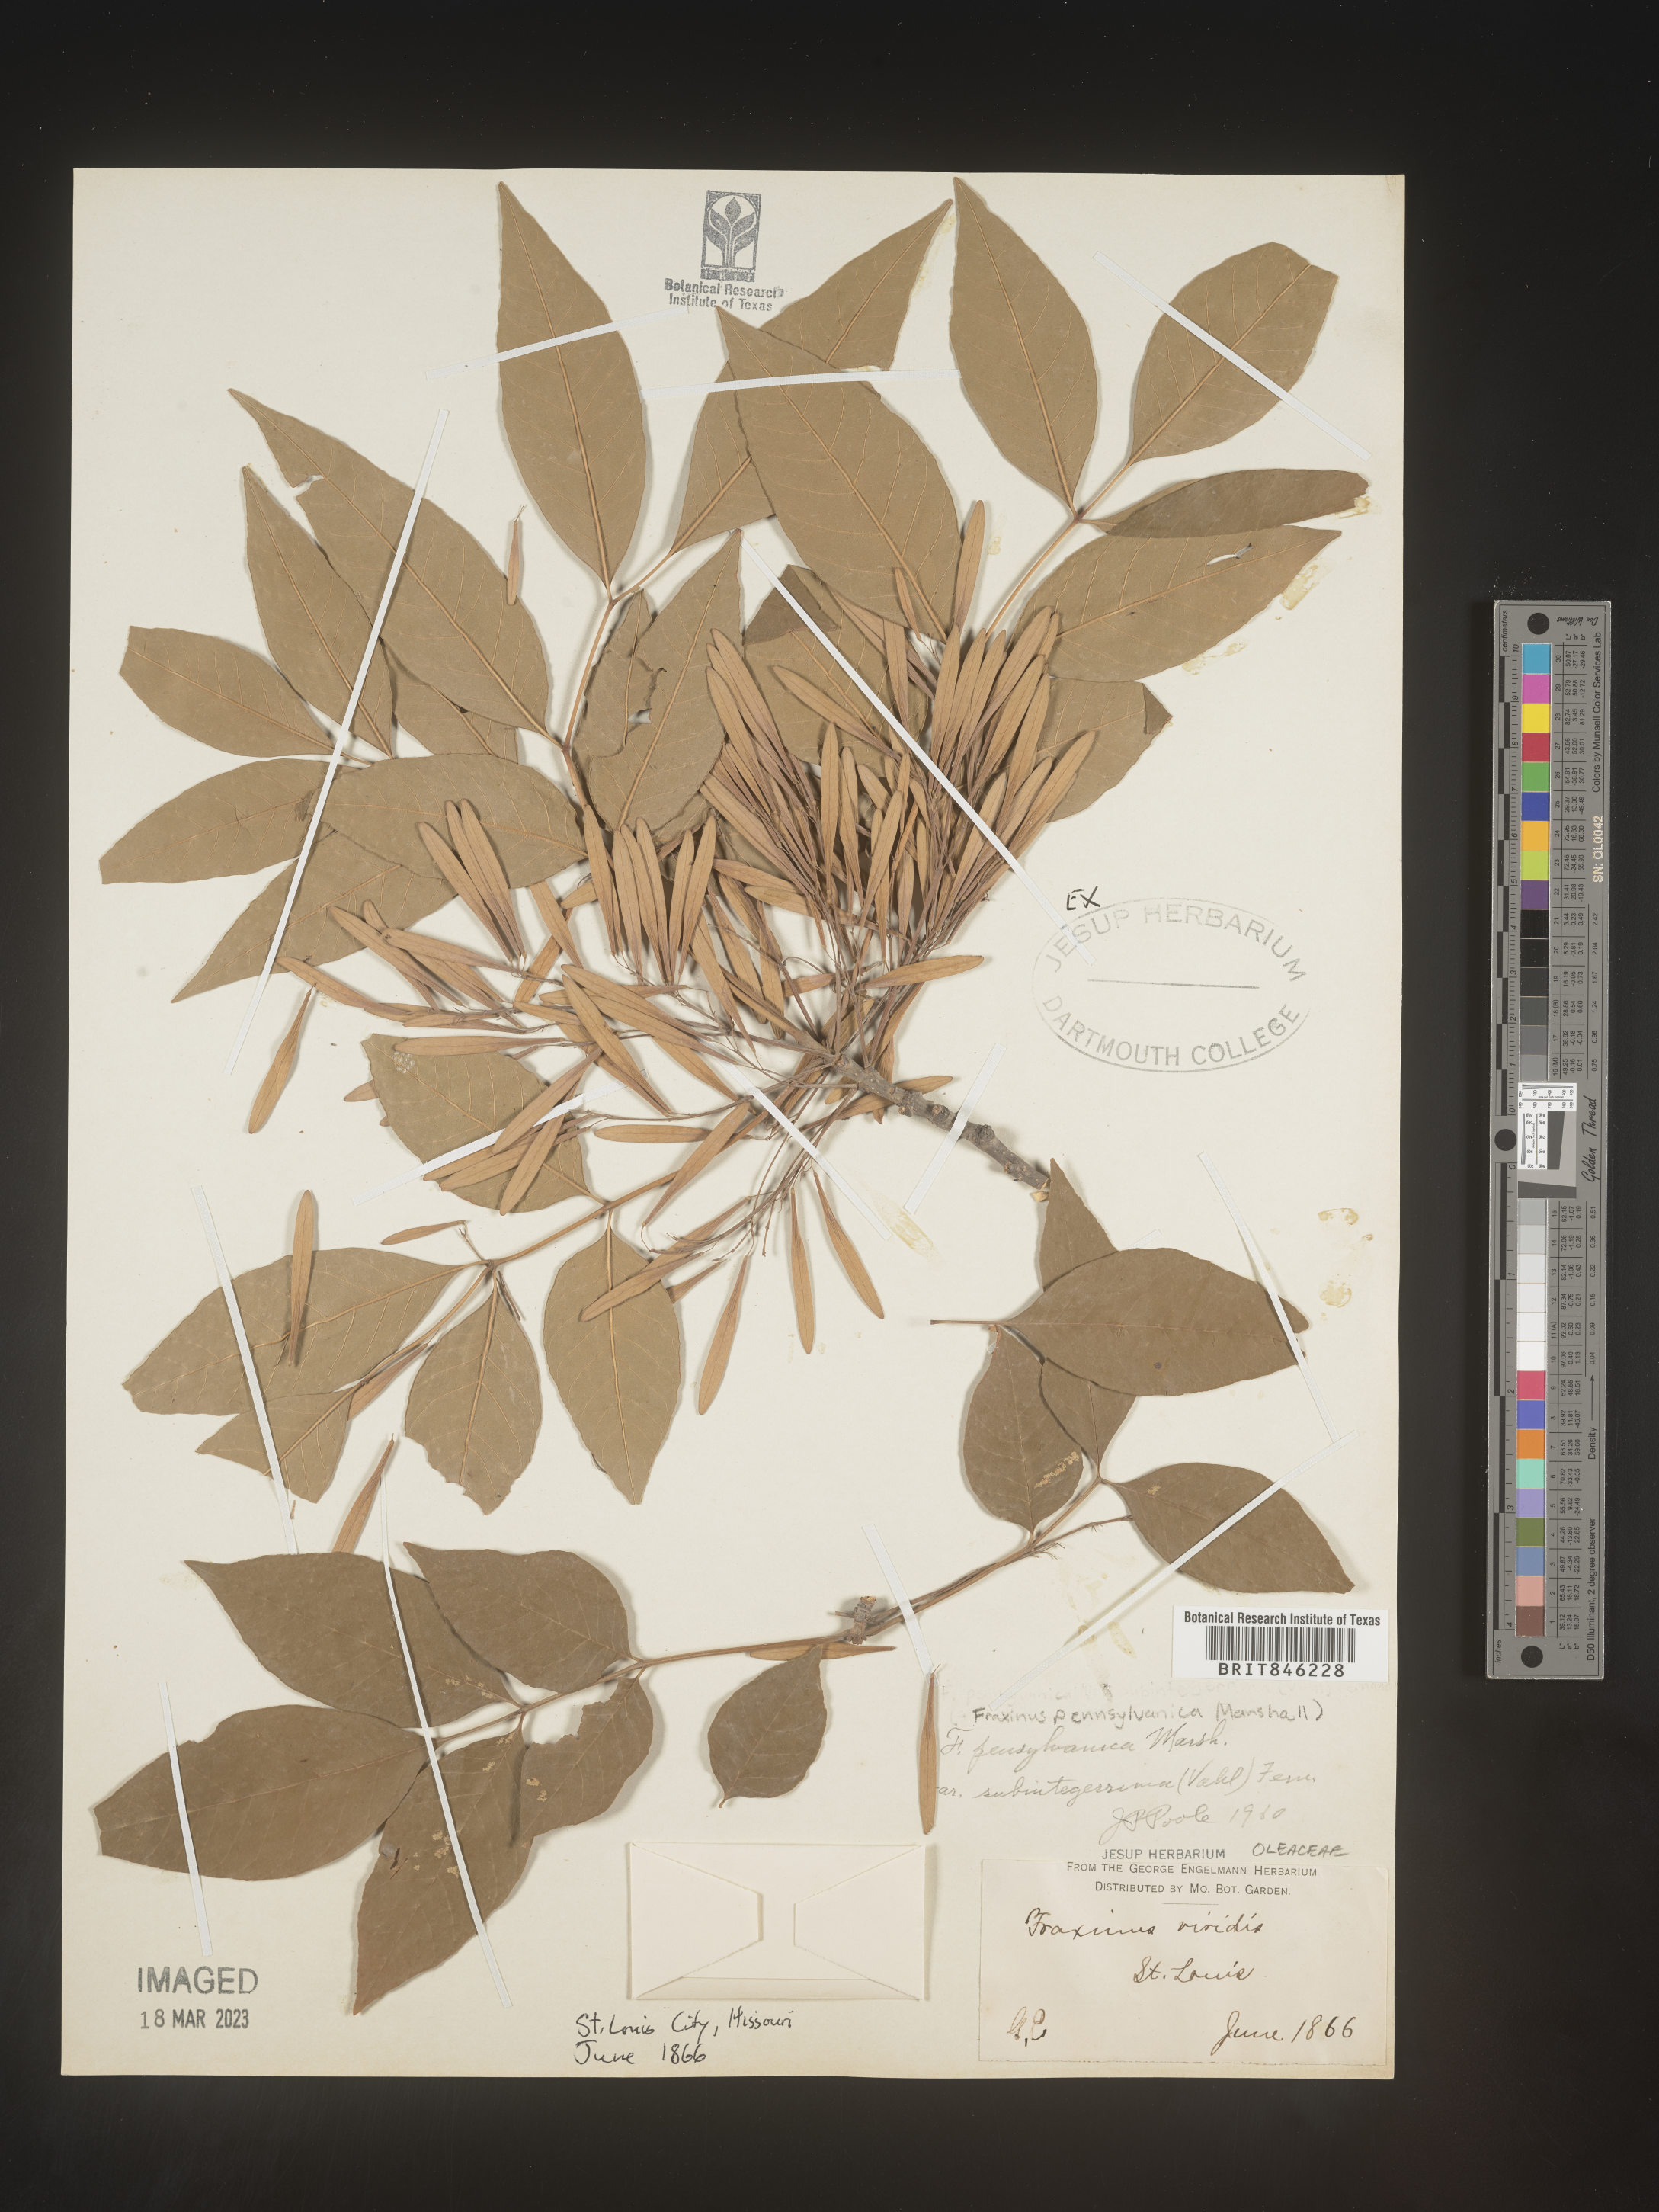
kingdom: Plantae
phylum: Tracheophyta
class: Magnoliopsida
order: Lamiales
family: Oleaceae
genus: Fraxinus
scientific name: Fraxinus pennsylvanica
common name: Green ash
